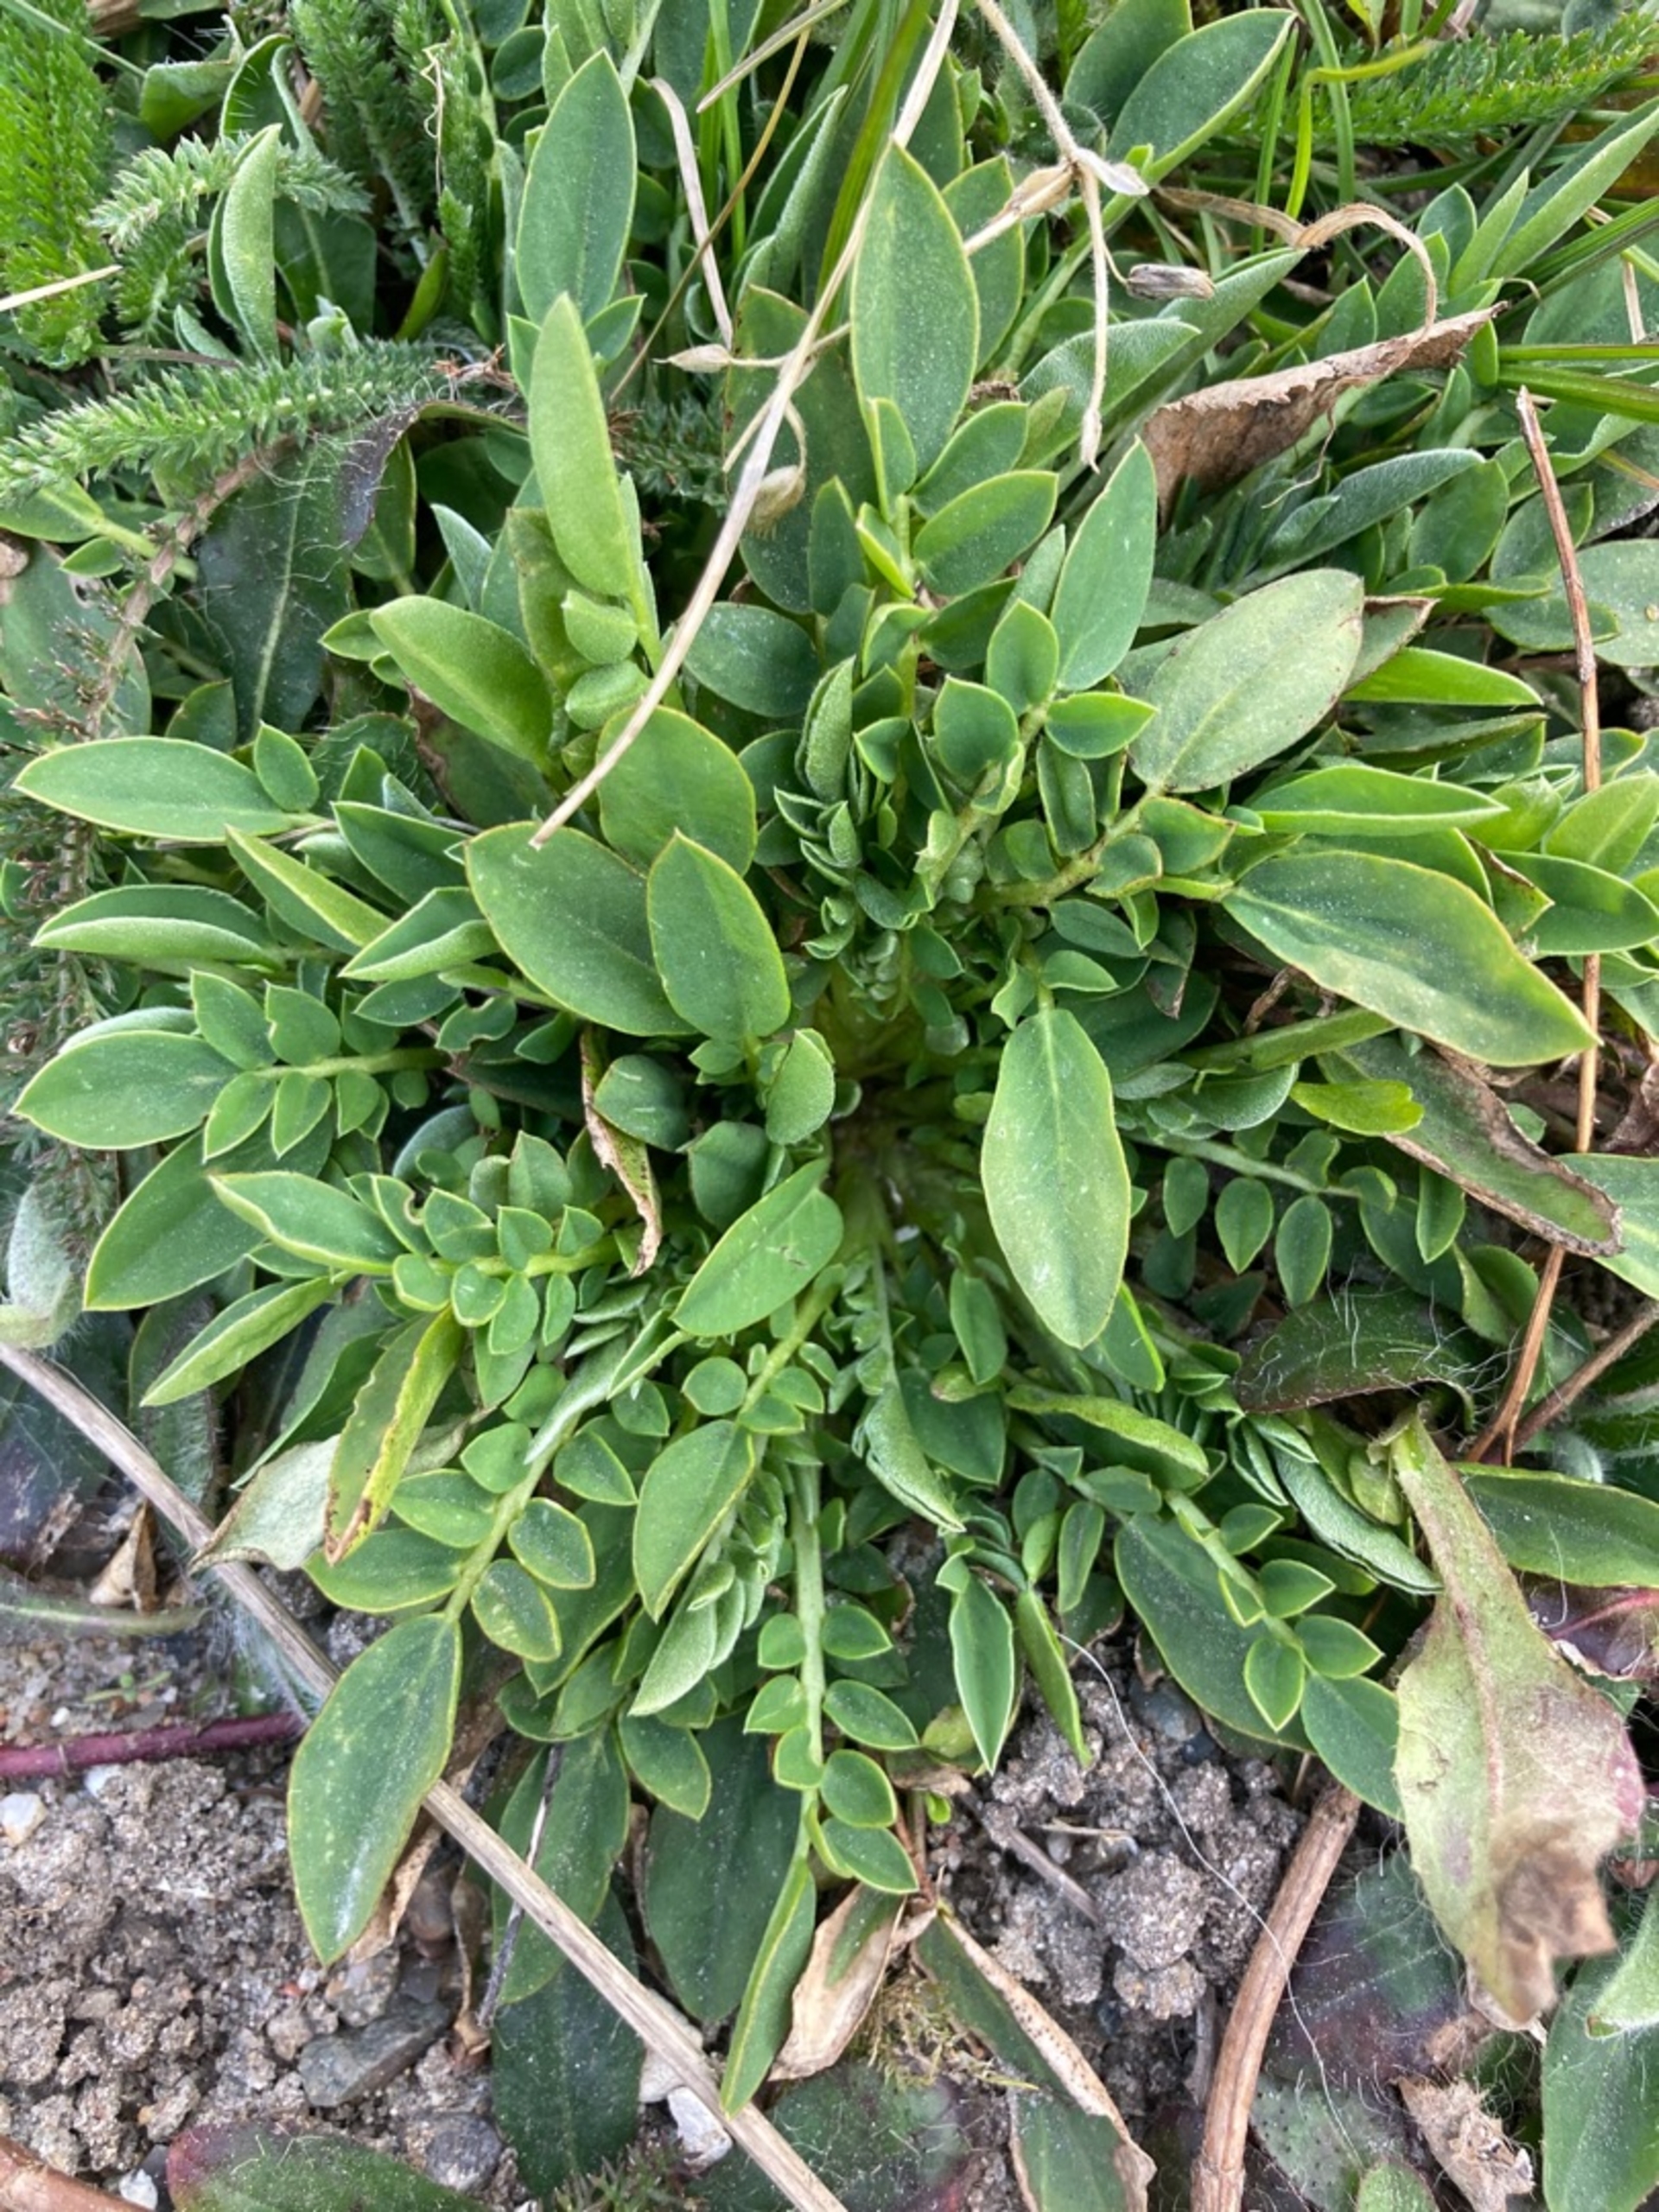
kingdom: Plantae
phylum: Tracheophyta
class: Magnoliopsida
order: Fabales
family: Fabaceae
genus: Anthyllis
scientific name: Anthyllis vulneraria
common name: Rundbælg
